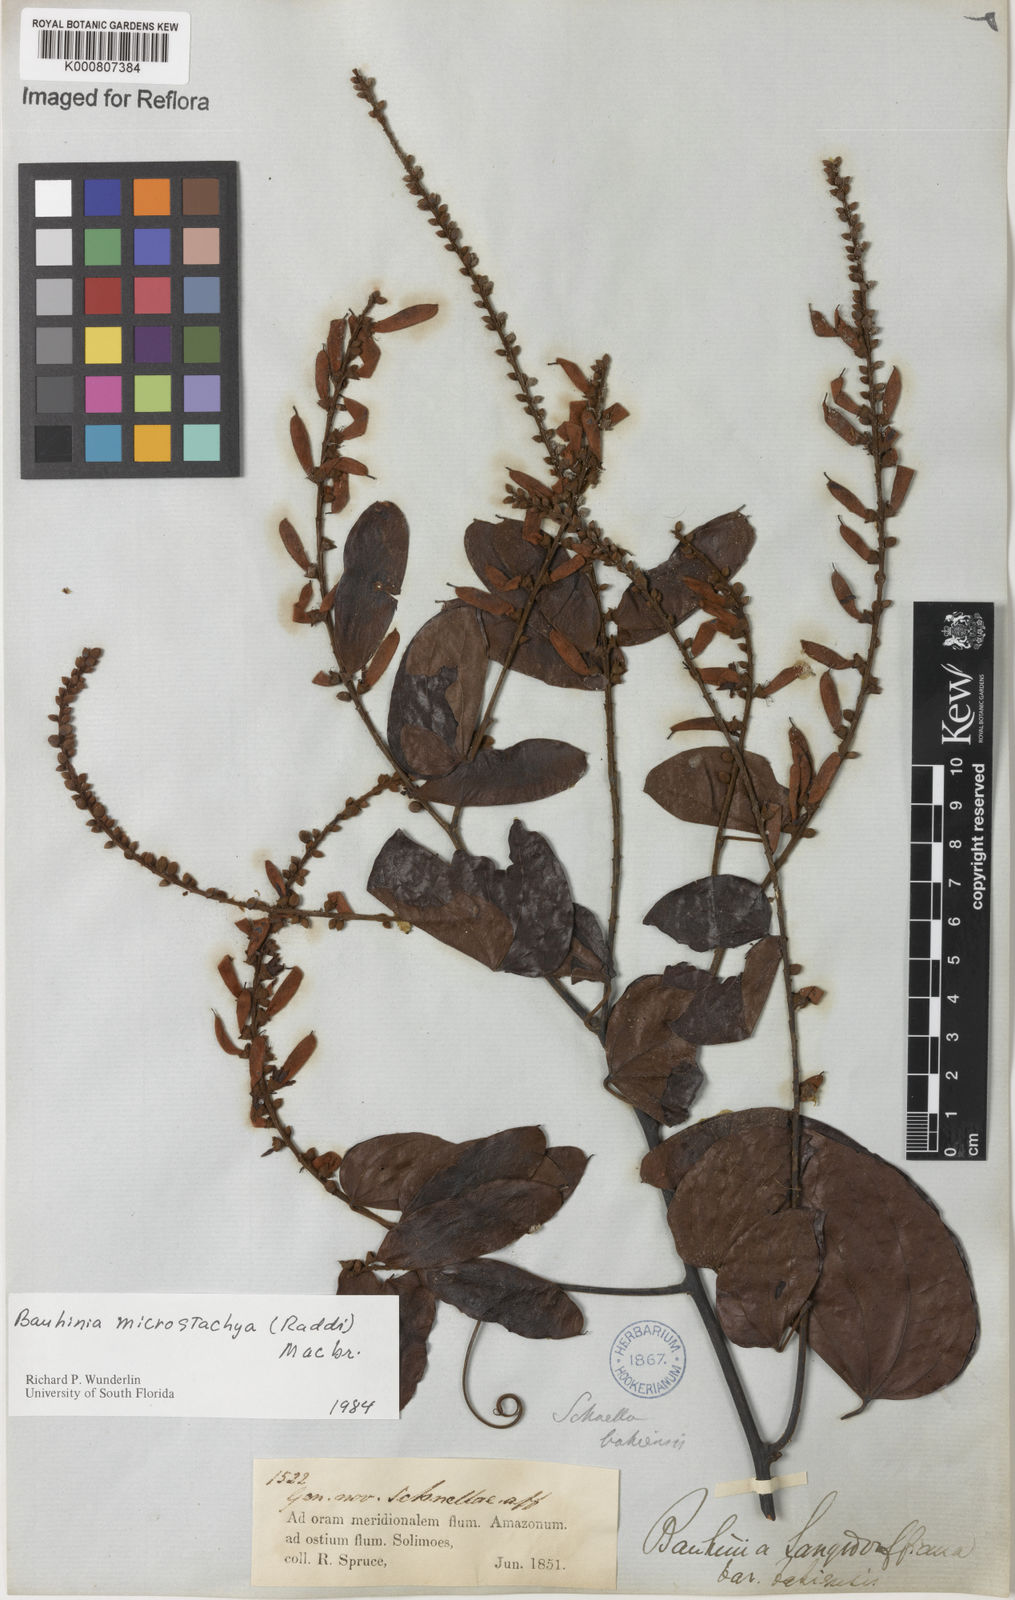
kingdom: Plantae
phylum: Tracheophyta
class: Magnoliopsida
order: Fabales
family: Fabaceae
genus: Schnella
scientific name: Schnella microstachya
